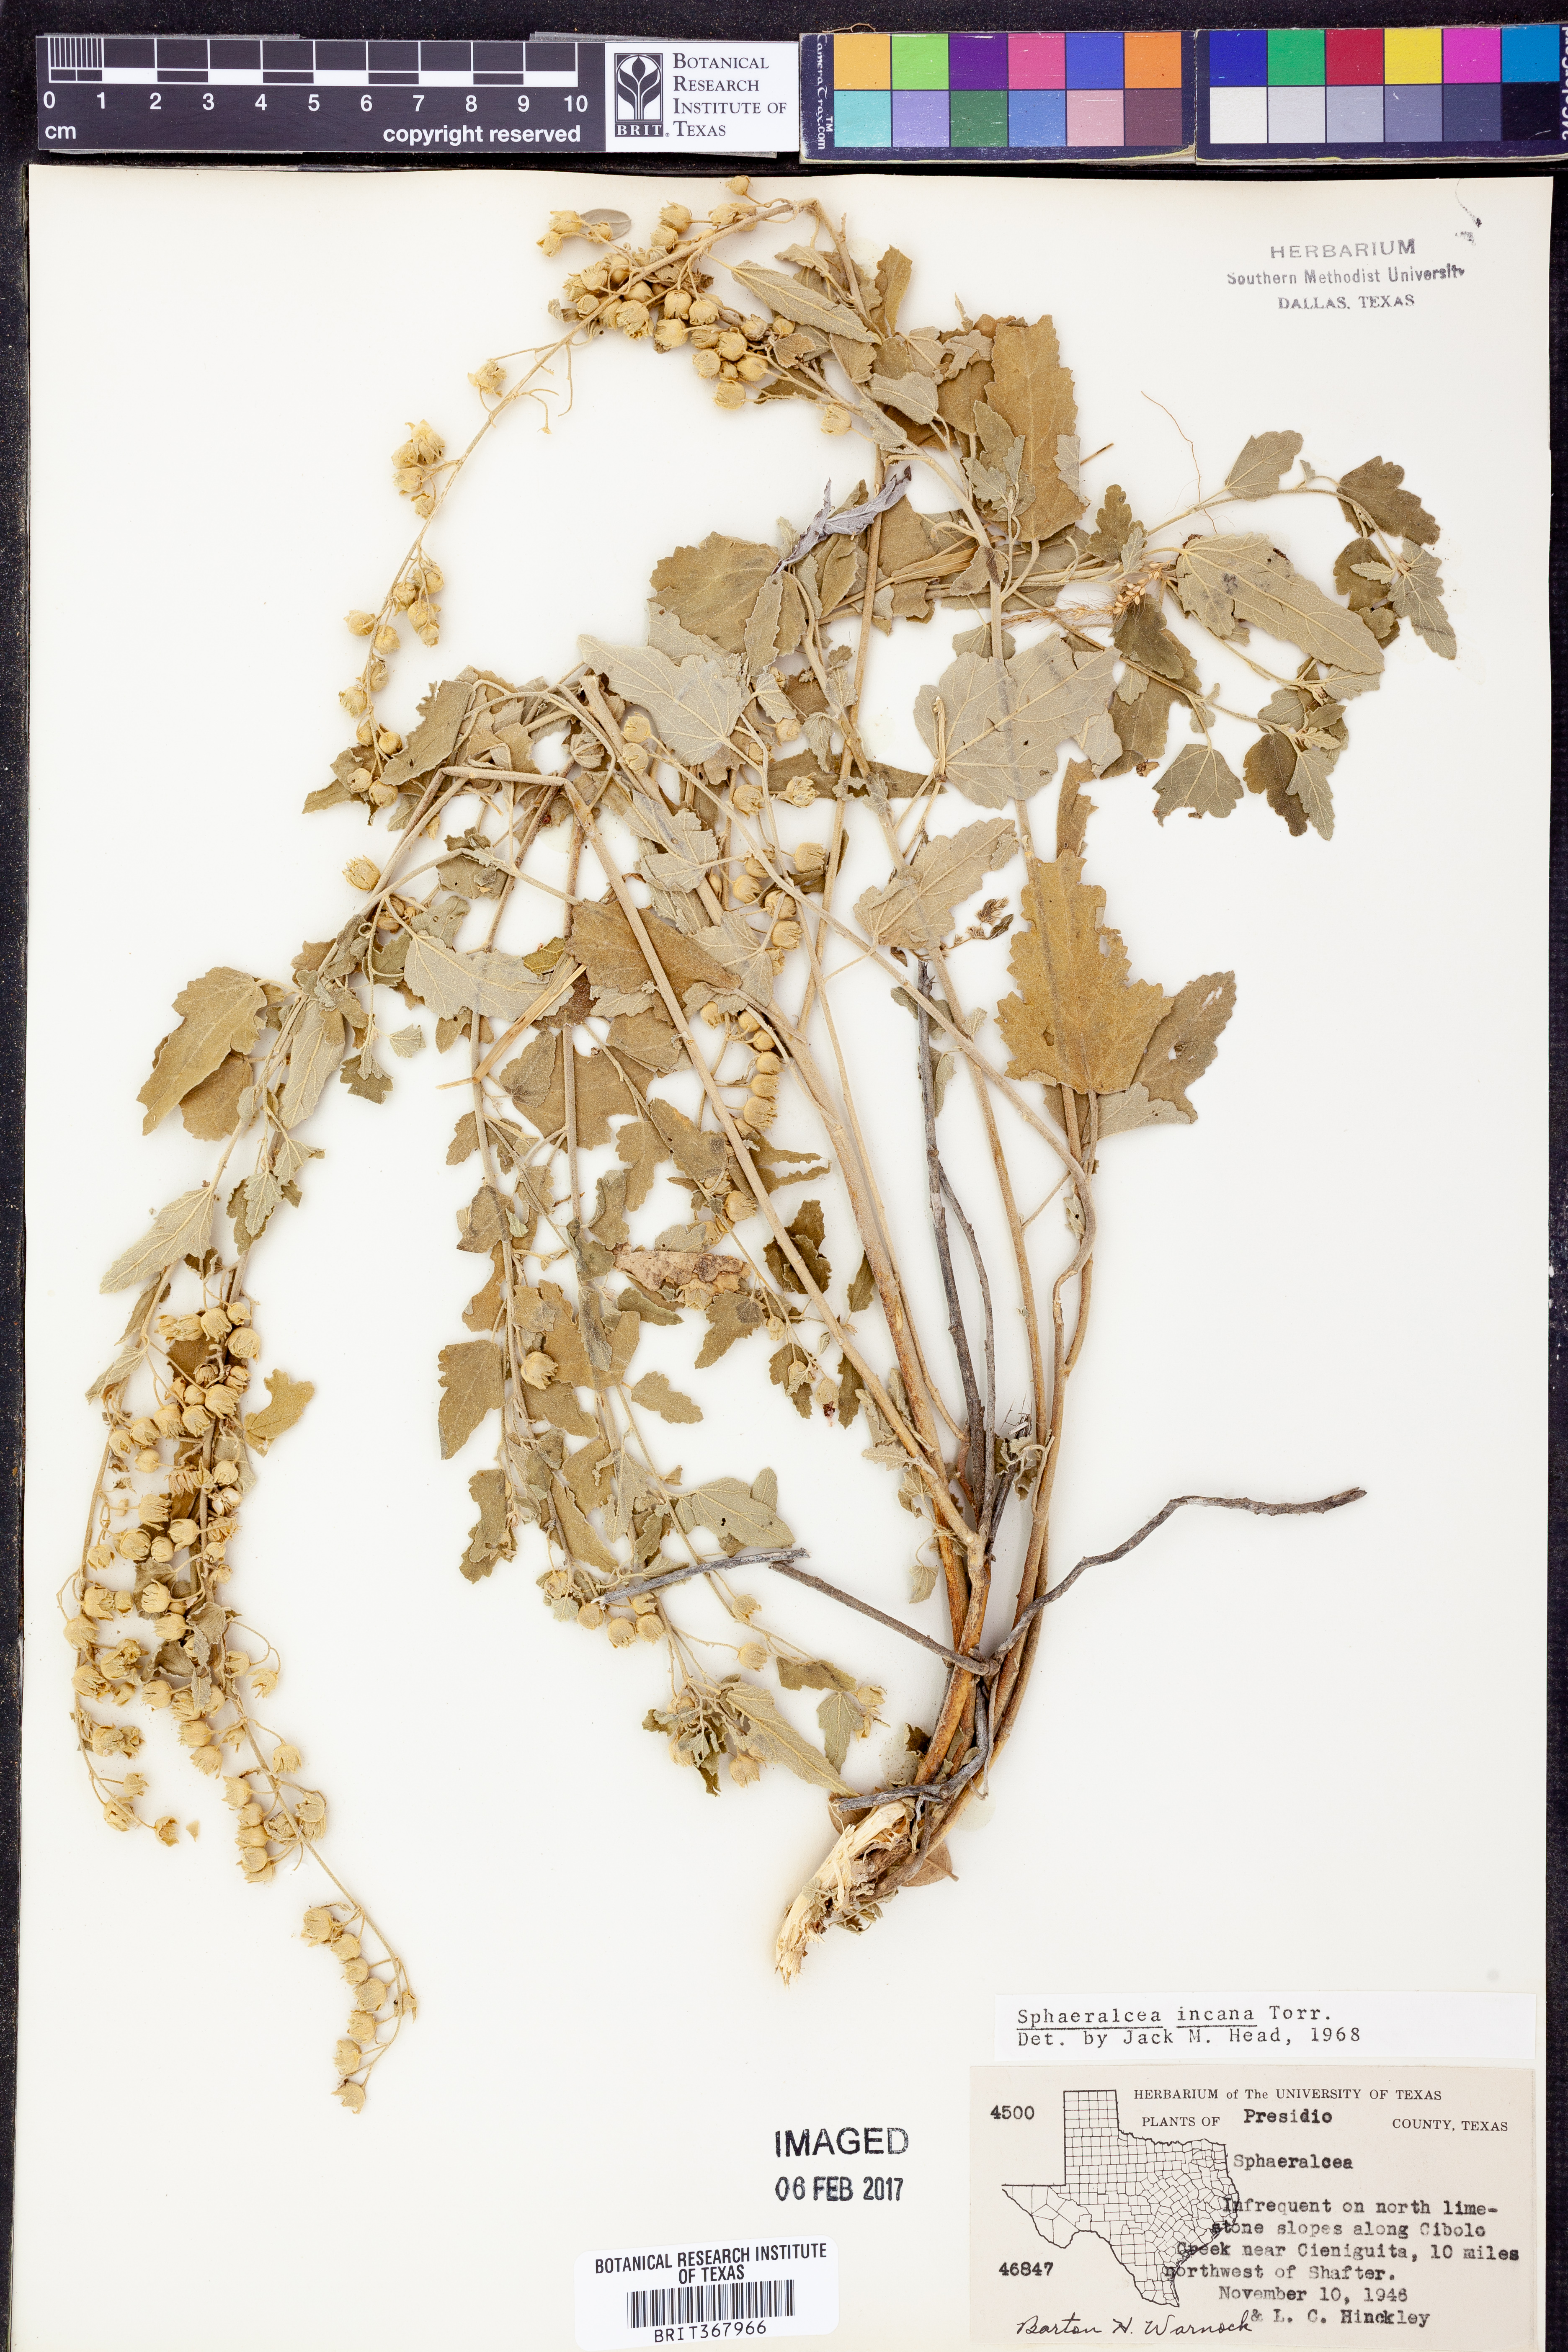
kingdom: Plantae
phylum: Tracheophyta
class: Magnoliopsida
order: Malvales
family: Malvaceae
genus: Sphaeralcea
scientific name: Sphaeralcea incana
